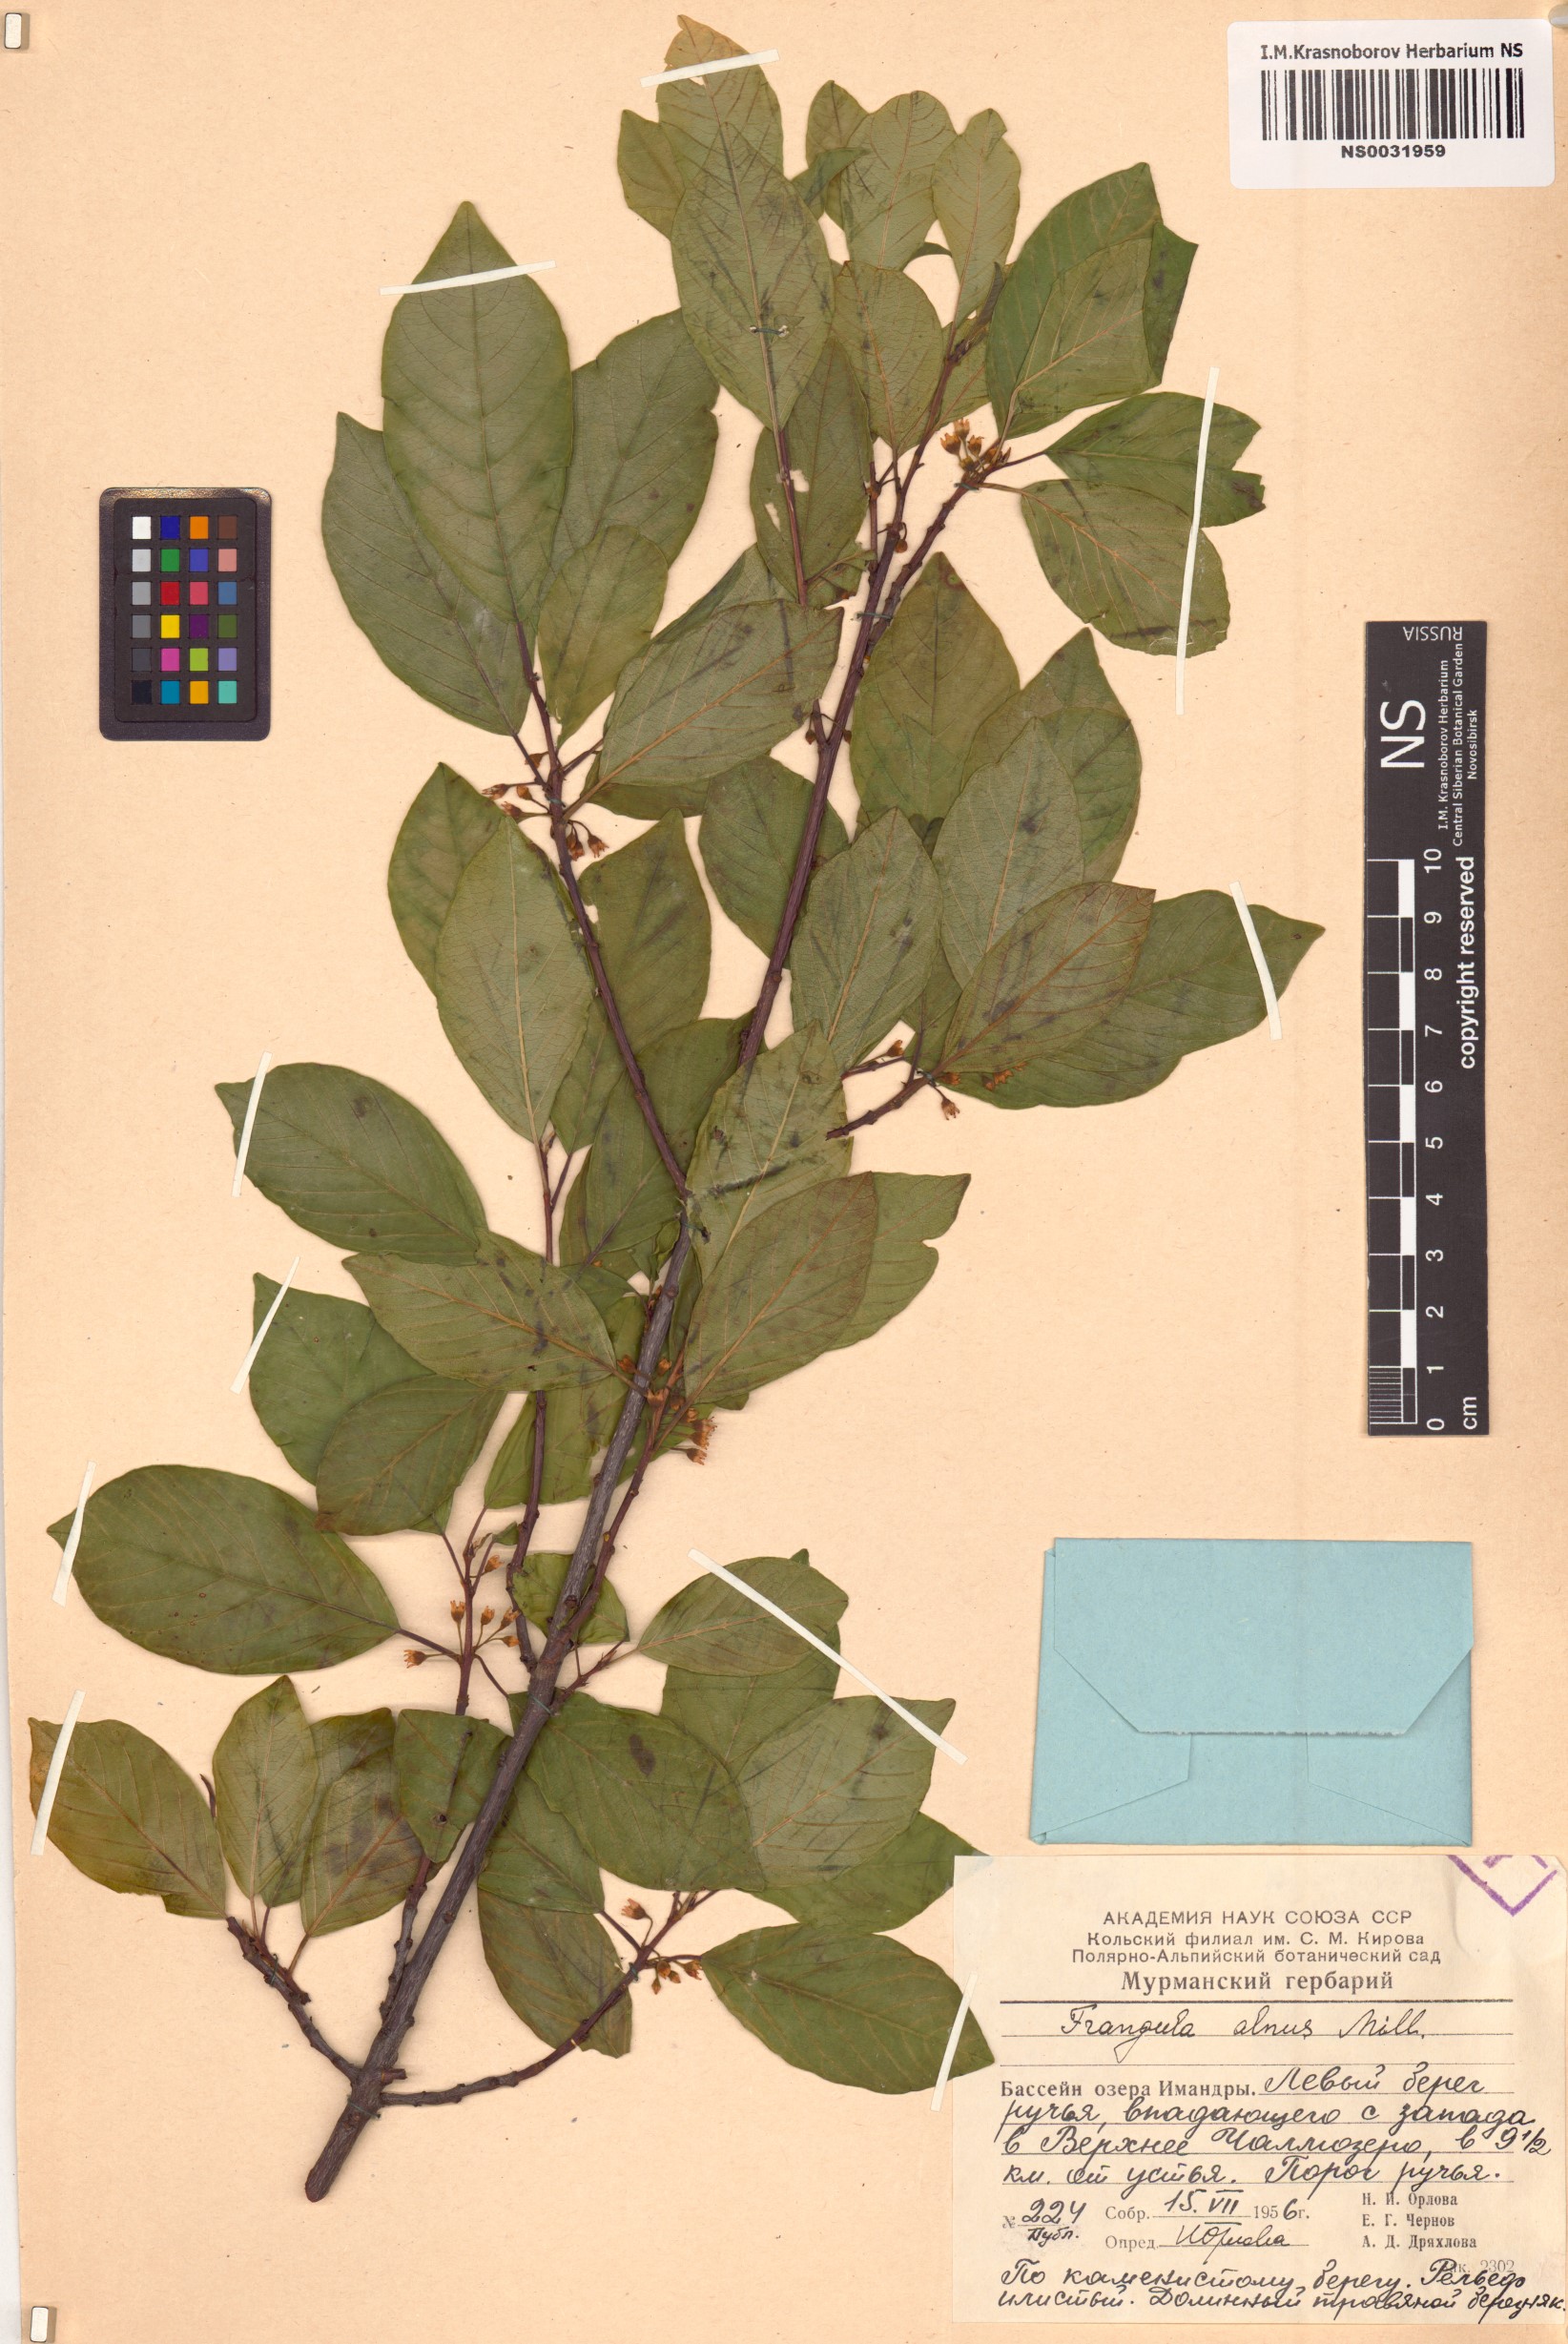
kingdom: Plantae
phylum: Tracheophyta
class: Magnoliopsida
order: Rosales
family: Rhamnaceae
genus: Frangula
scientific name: Frangula alnus
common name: Alder buckthorn
